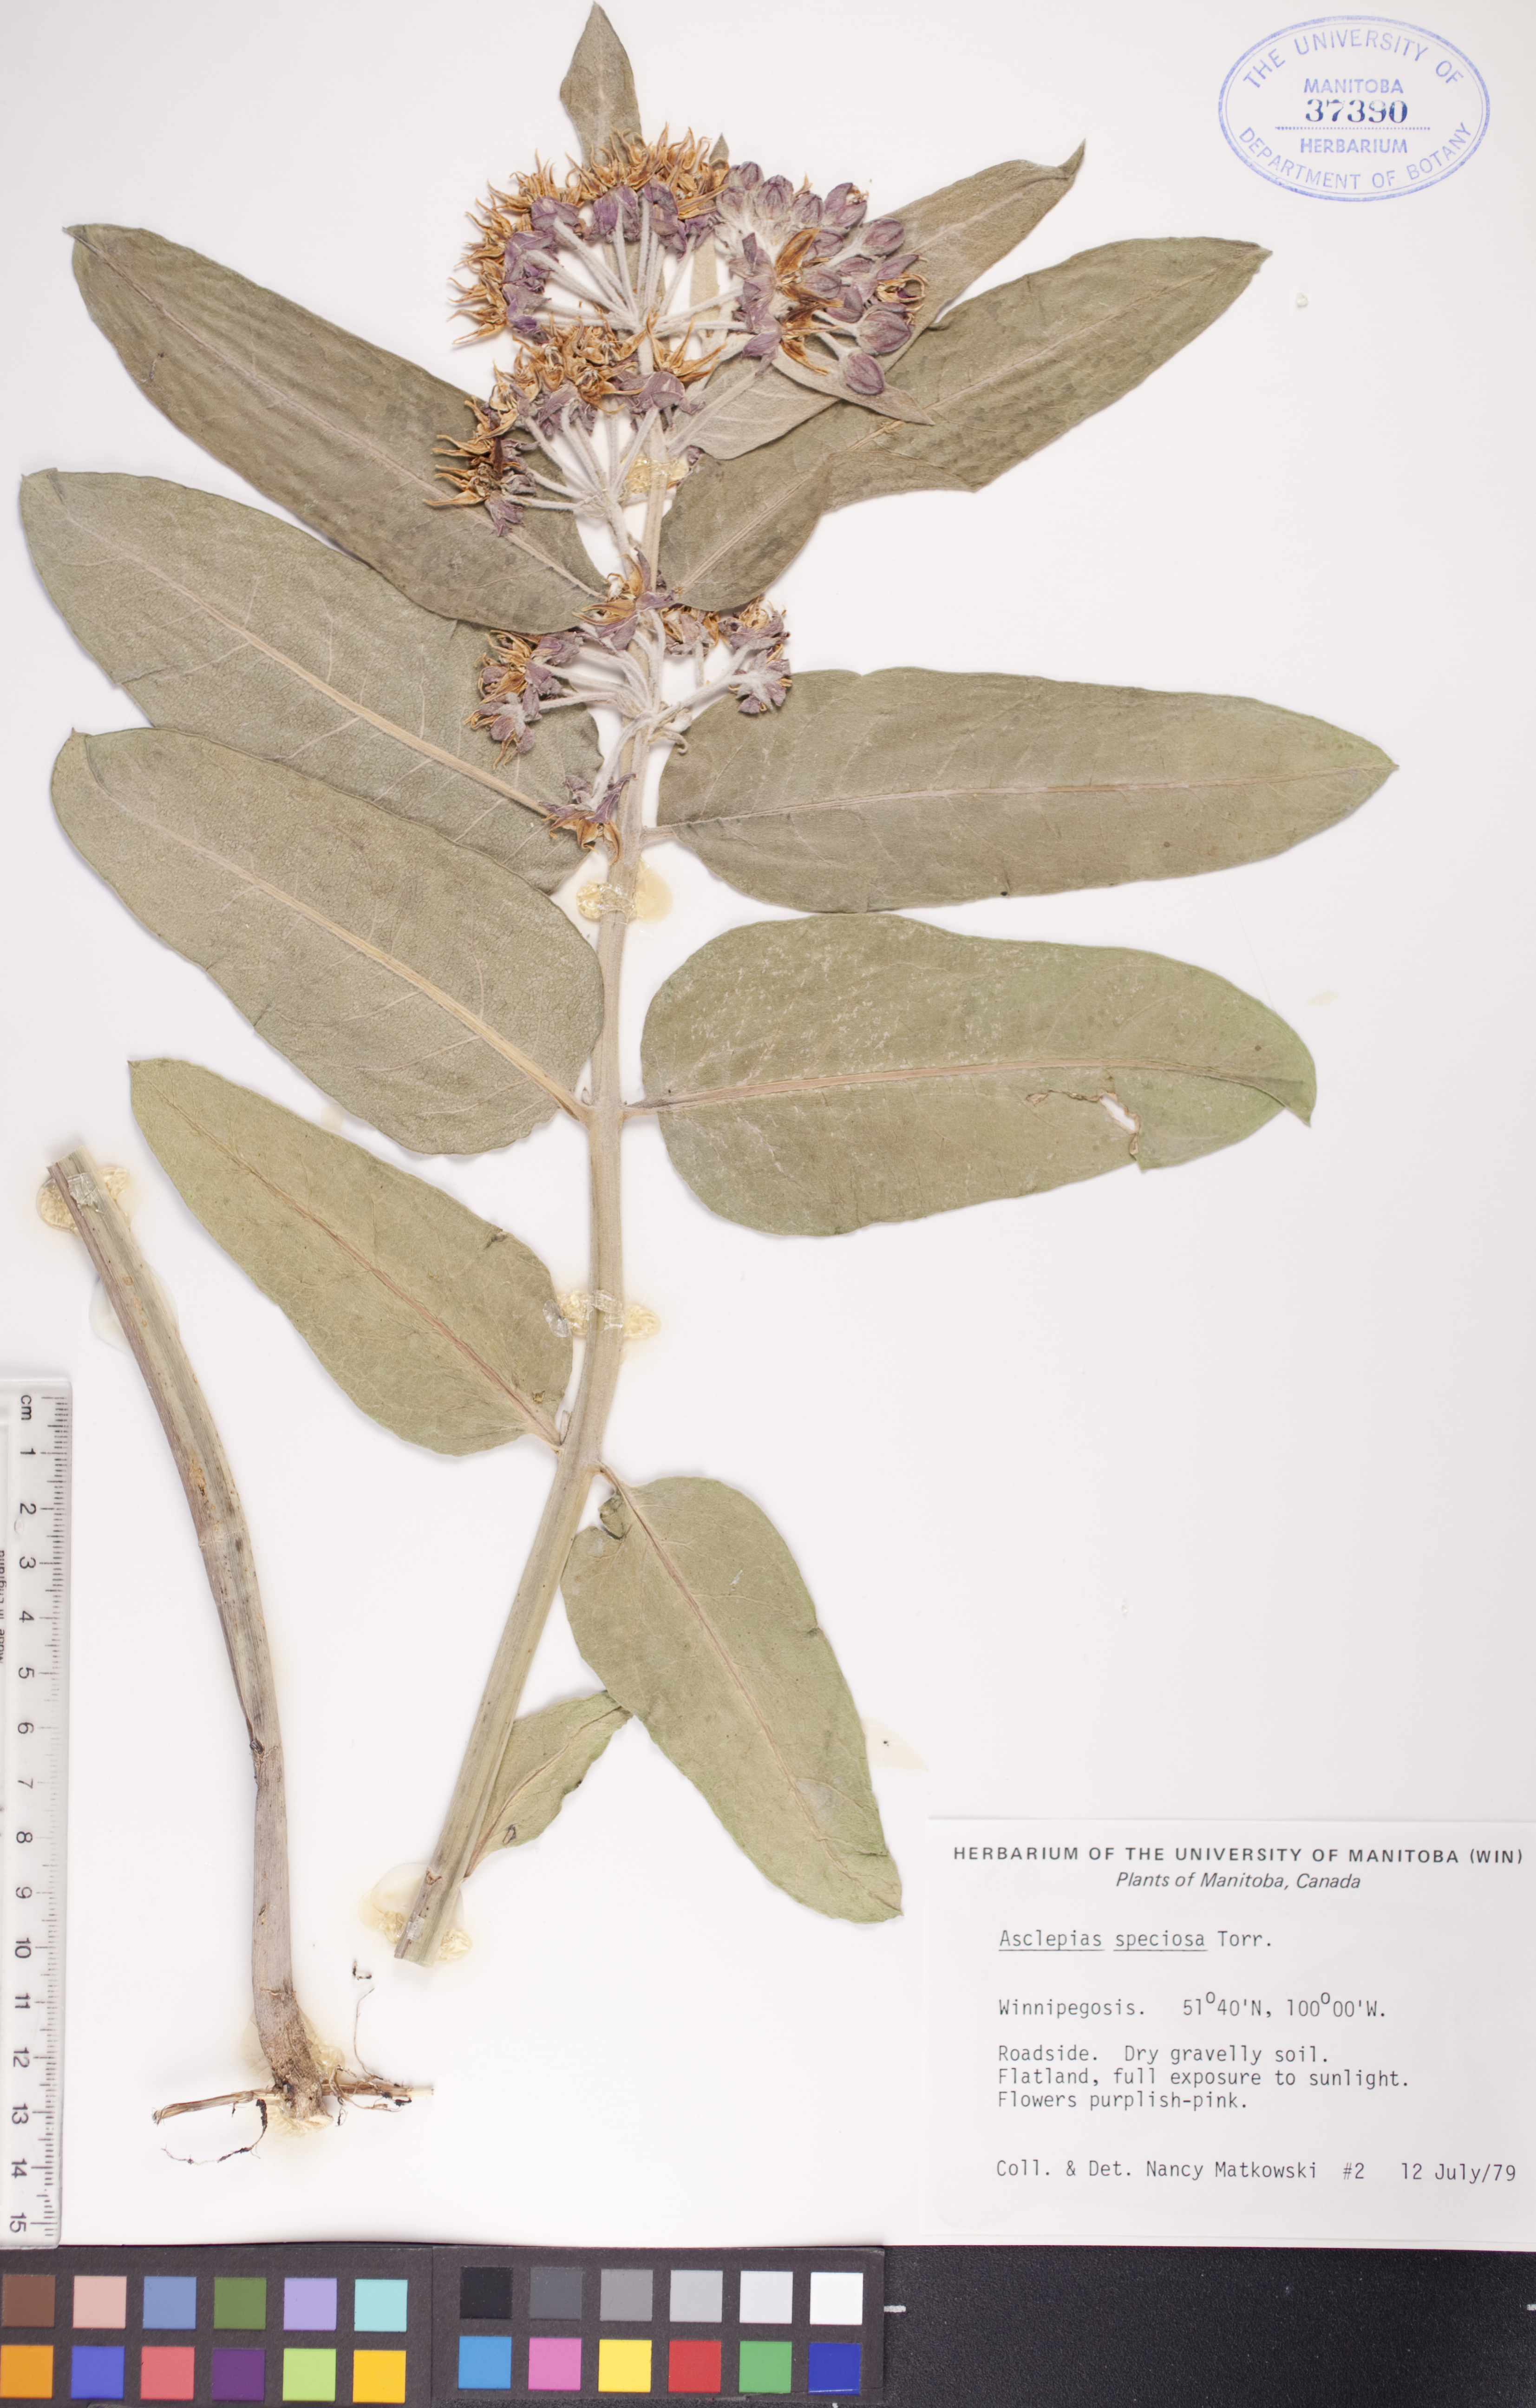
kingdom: Plantae
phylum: Tracheophyta
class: Magnoliopsida
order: Gentianales
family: Apocynaceae
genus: Asclepias
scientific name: Asclepias speciosa
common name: Showy milkweed
